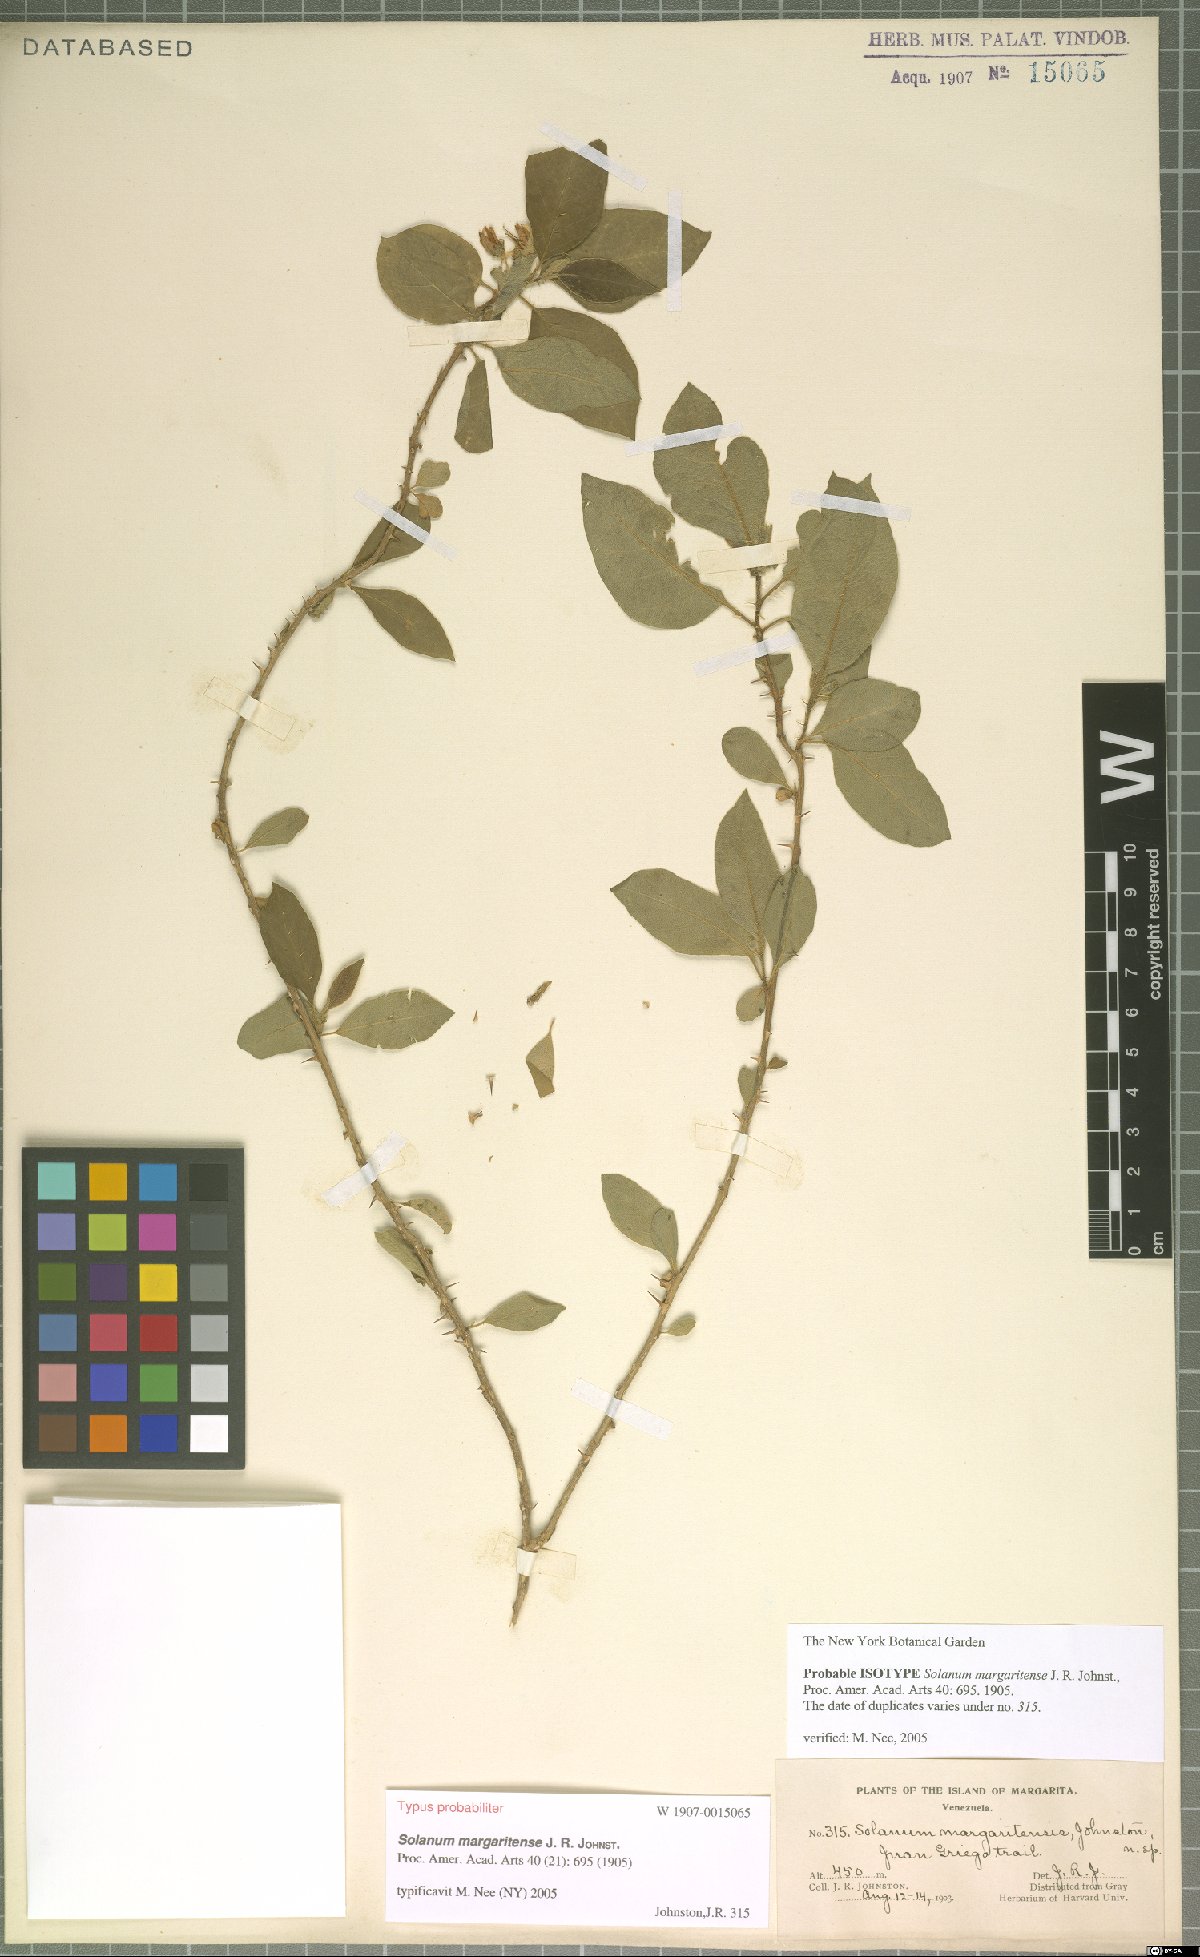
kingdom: Plantae
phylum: Tracheophyta
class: Magnoliopsida
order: Solanales
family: Solanaceae
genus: Solanum
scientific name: Solanum gardneri
